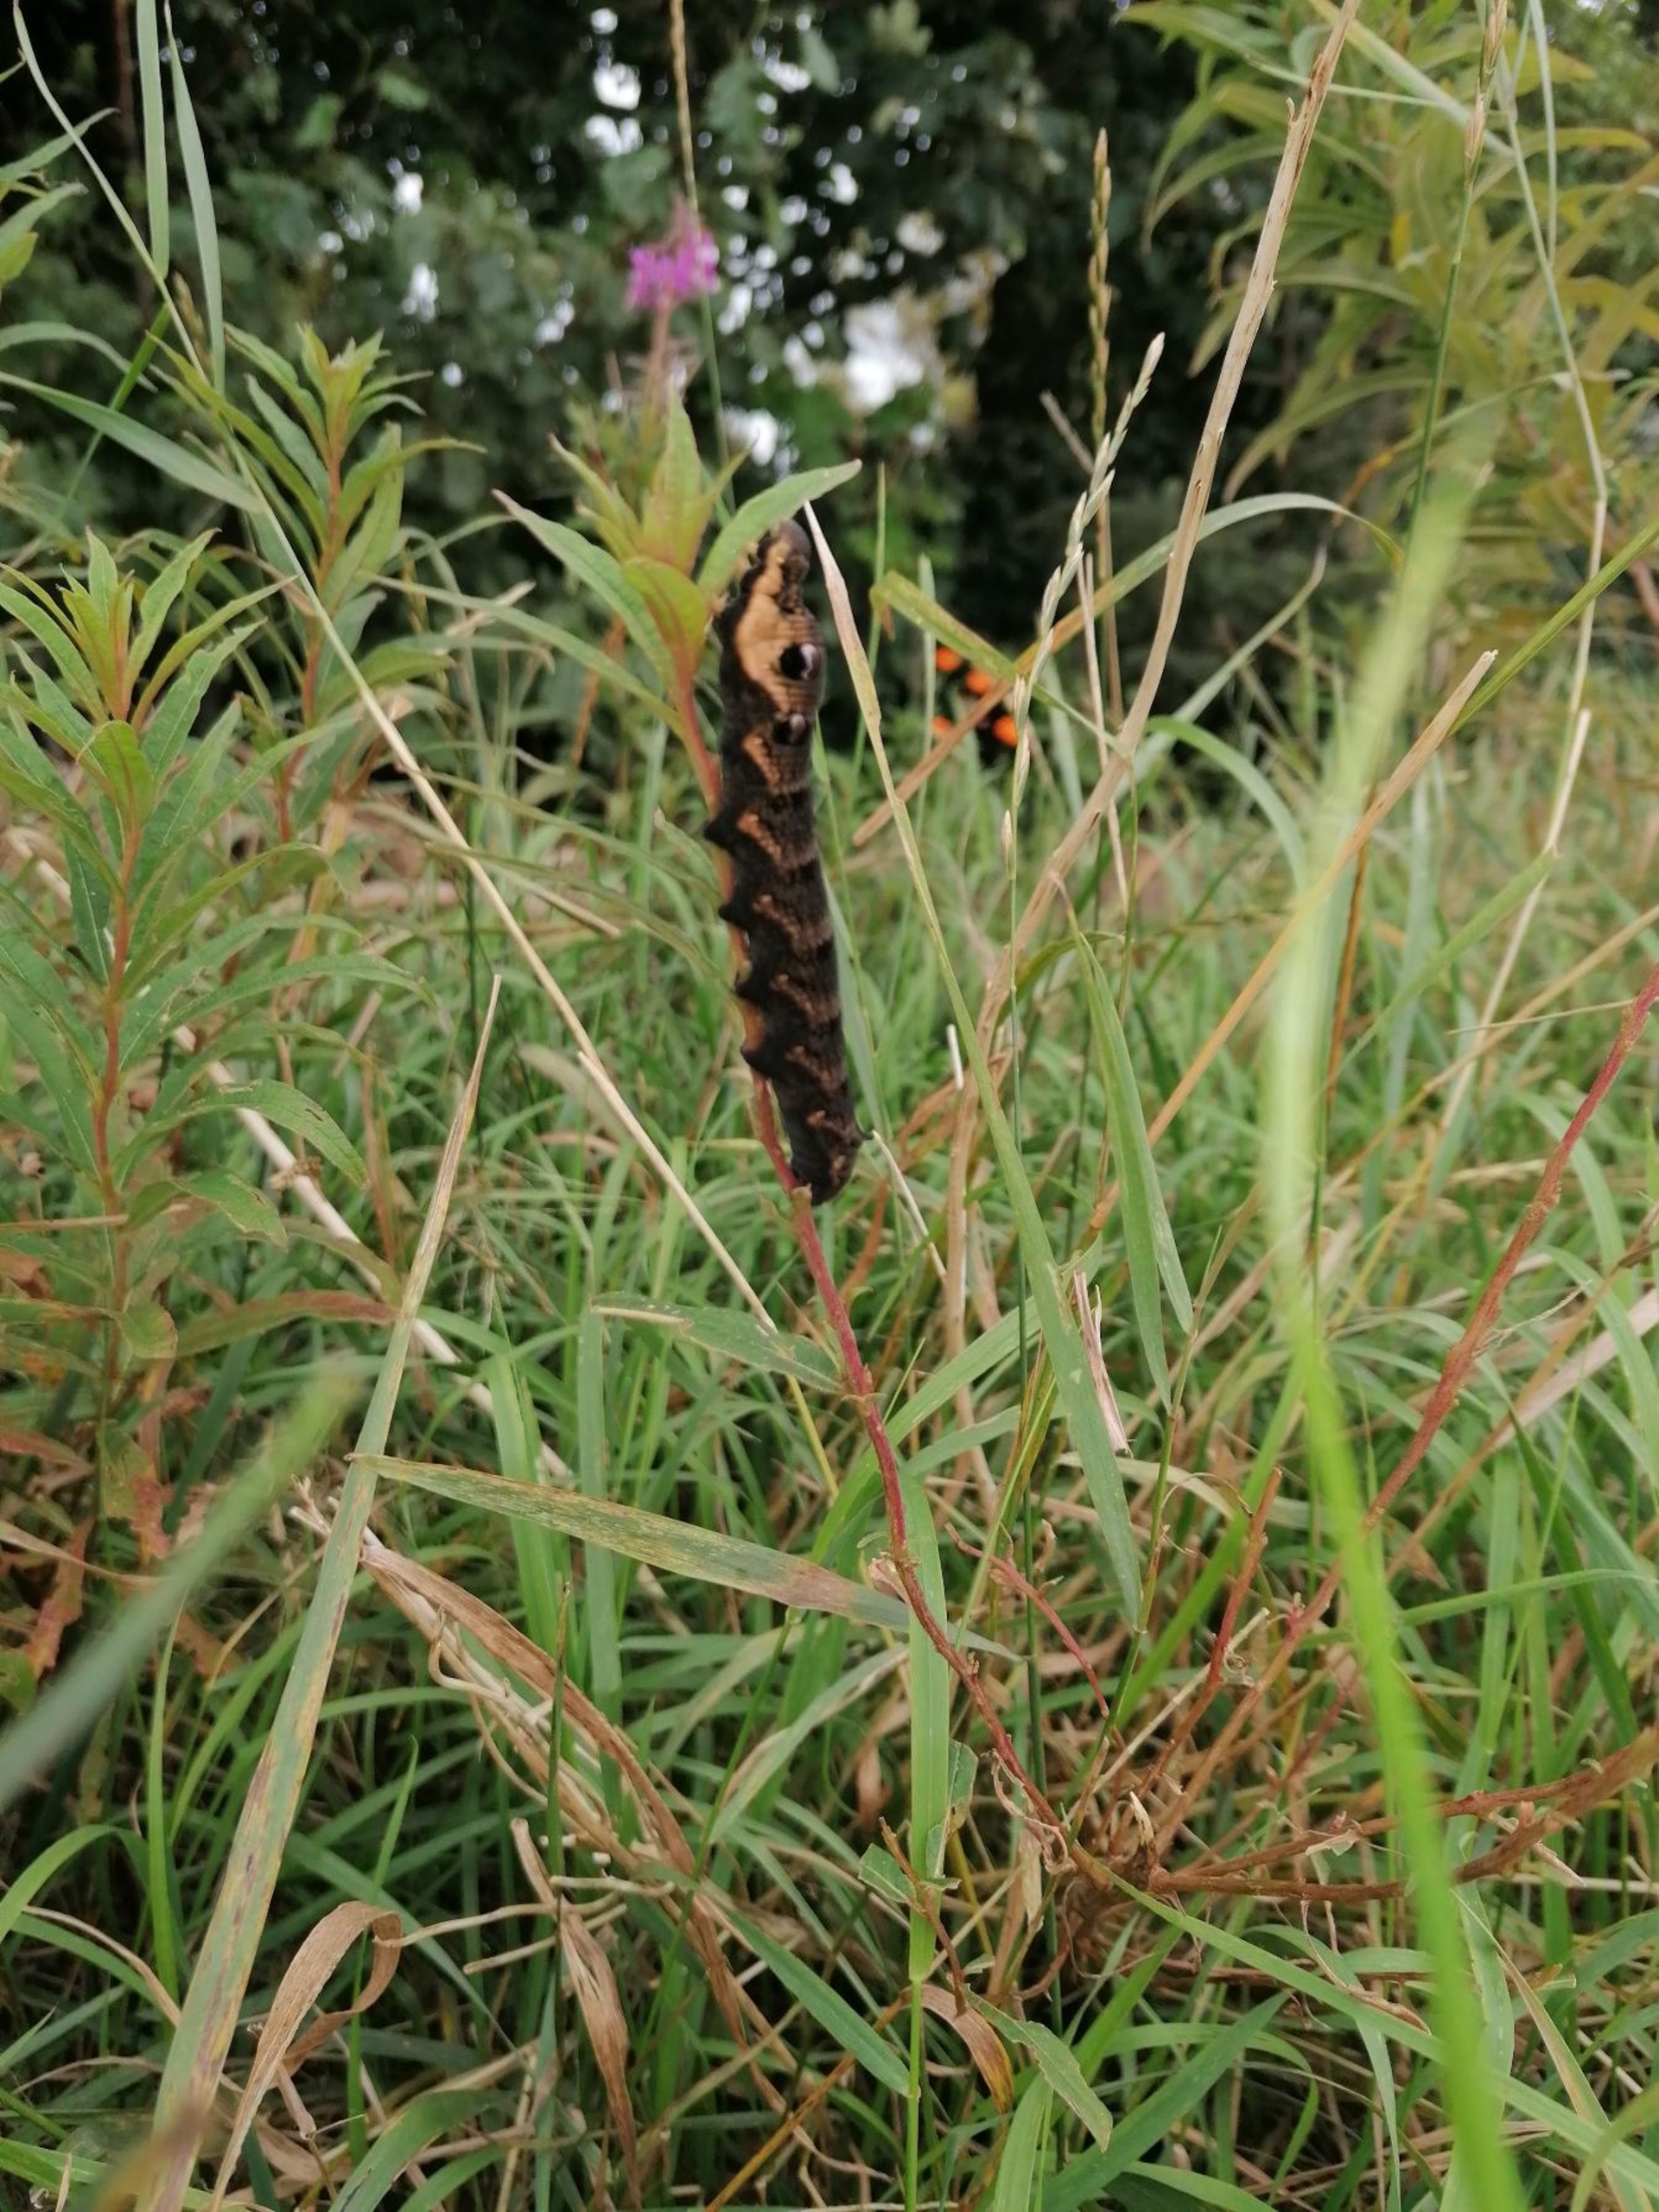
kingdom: Animalia
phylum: Arthropoda
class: Insecta
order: Lepidoptera
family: Sphingidae
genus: Deilephila
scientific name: Deilephila elpenor
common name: Dueurtsværmer
